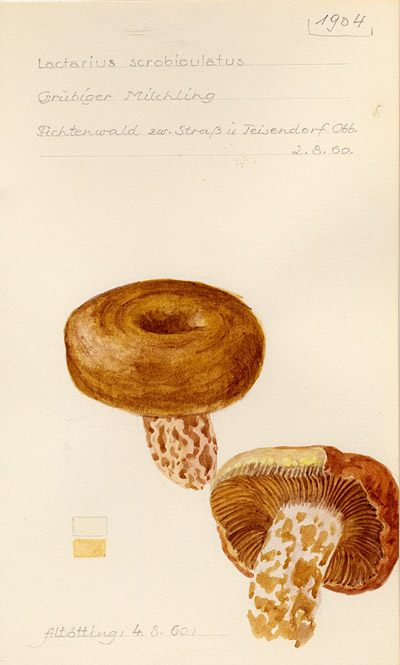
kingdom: Fungi
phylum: Basidiomycota
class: Agaricomycetes
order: Russulales
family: Russulaceae
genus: Lactarius
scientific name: Lactarius scrobiculatus
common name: Spotted milkcap
